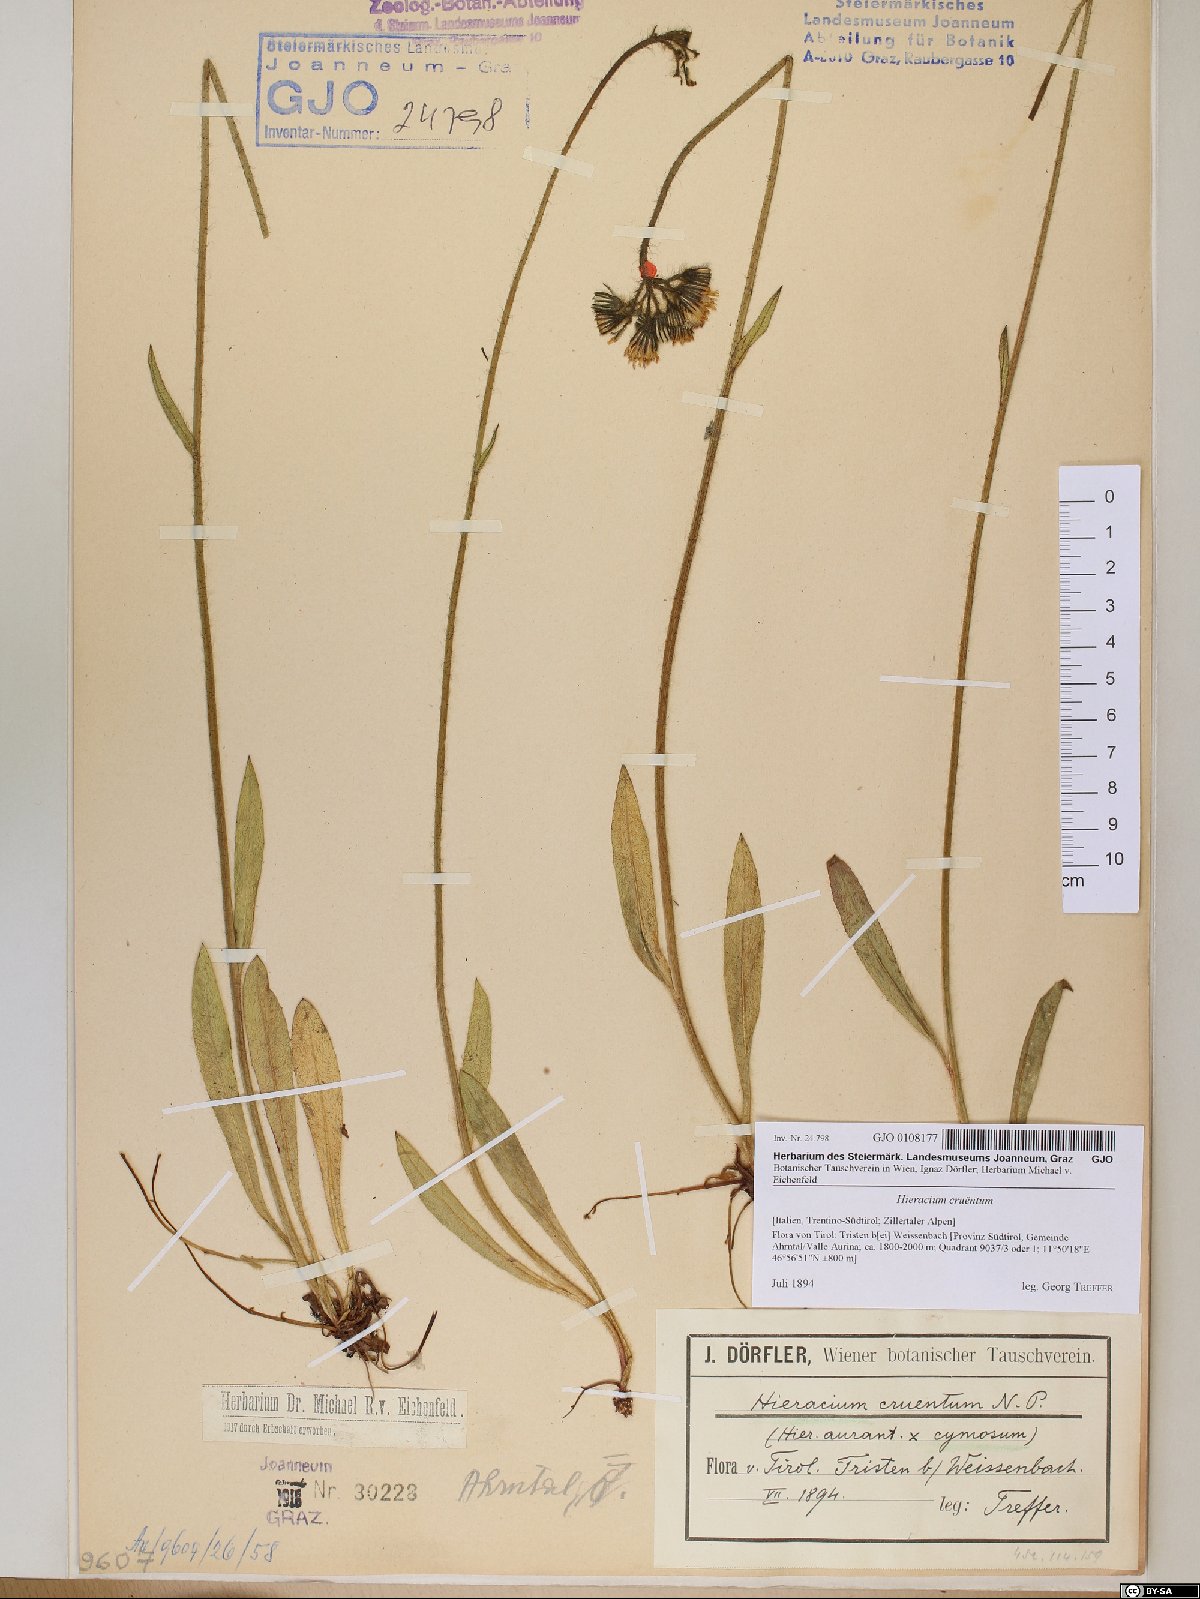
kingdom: Plantae
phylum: Tracheophyta
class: Magnoliopsida
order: Asterales
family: Asteraceae
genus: Pilosella
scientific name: Pilosella guthnikiana
